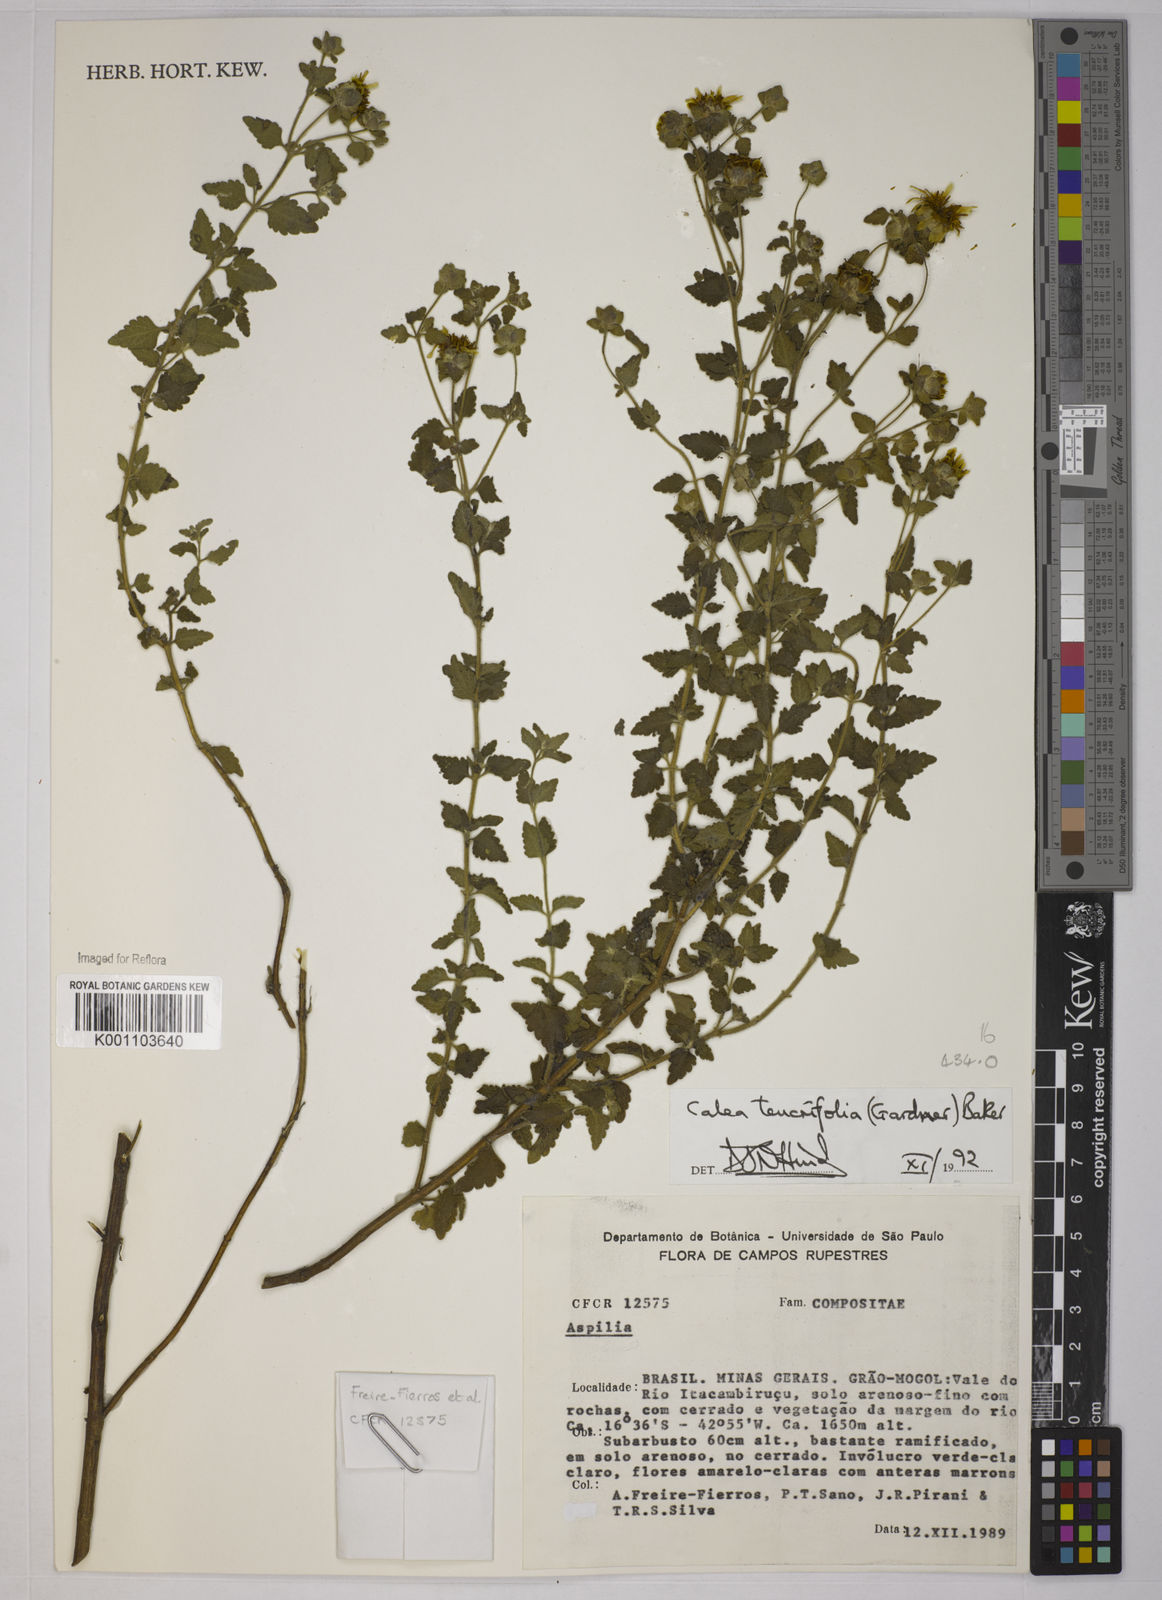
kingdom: Plantae
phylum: Tracheophyta
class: Magnoliopsida
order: Asterales
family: Asteraceae
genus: Calea
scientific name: Calea teucriifolia
